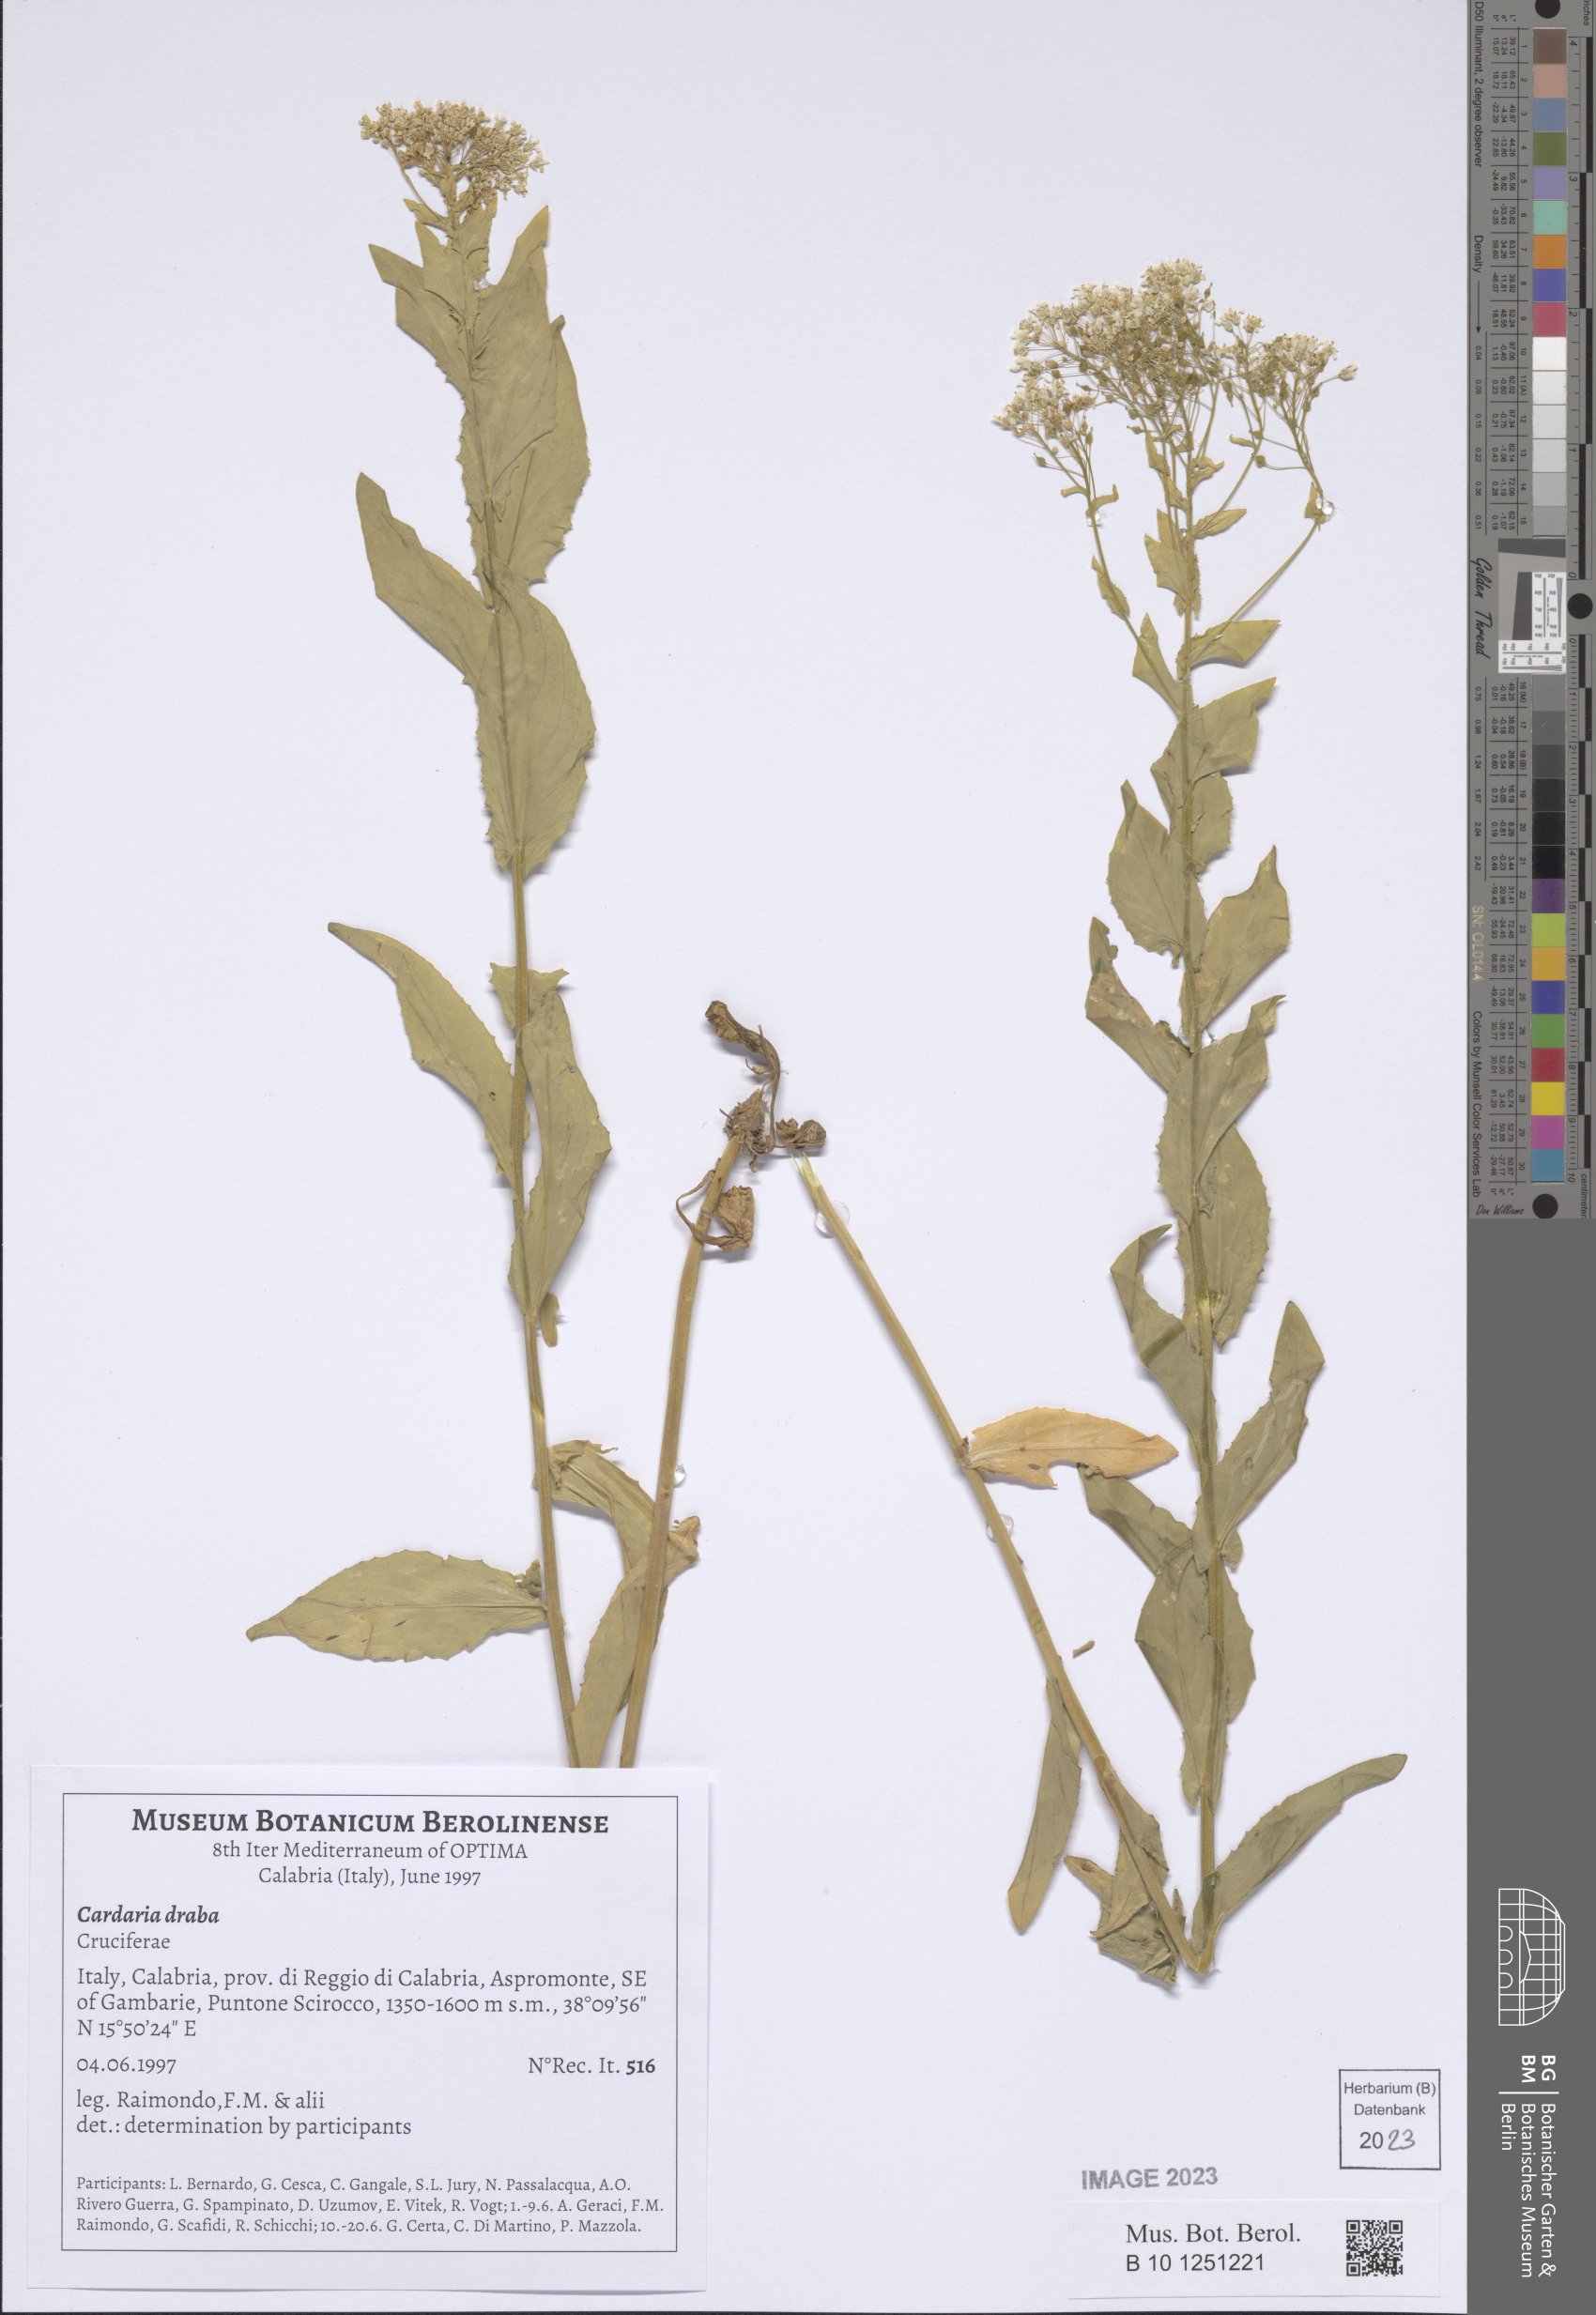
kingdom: Plantae
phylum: Tracheophyta
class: Magnoliopsida
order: Brassicales
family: Brassicaceae
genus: Lepidium
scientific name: Lepidium draba
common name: Hoary cress
